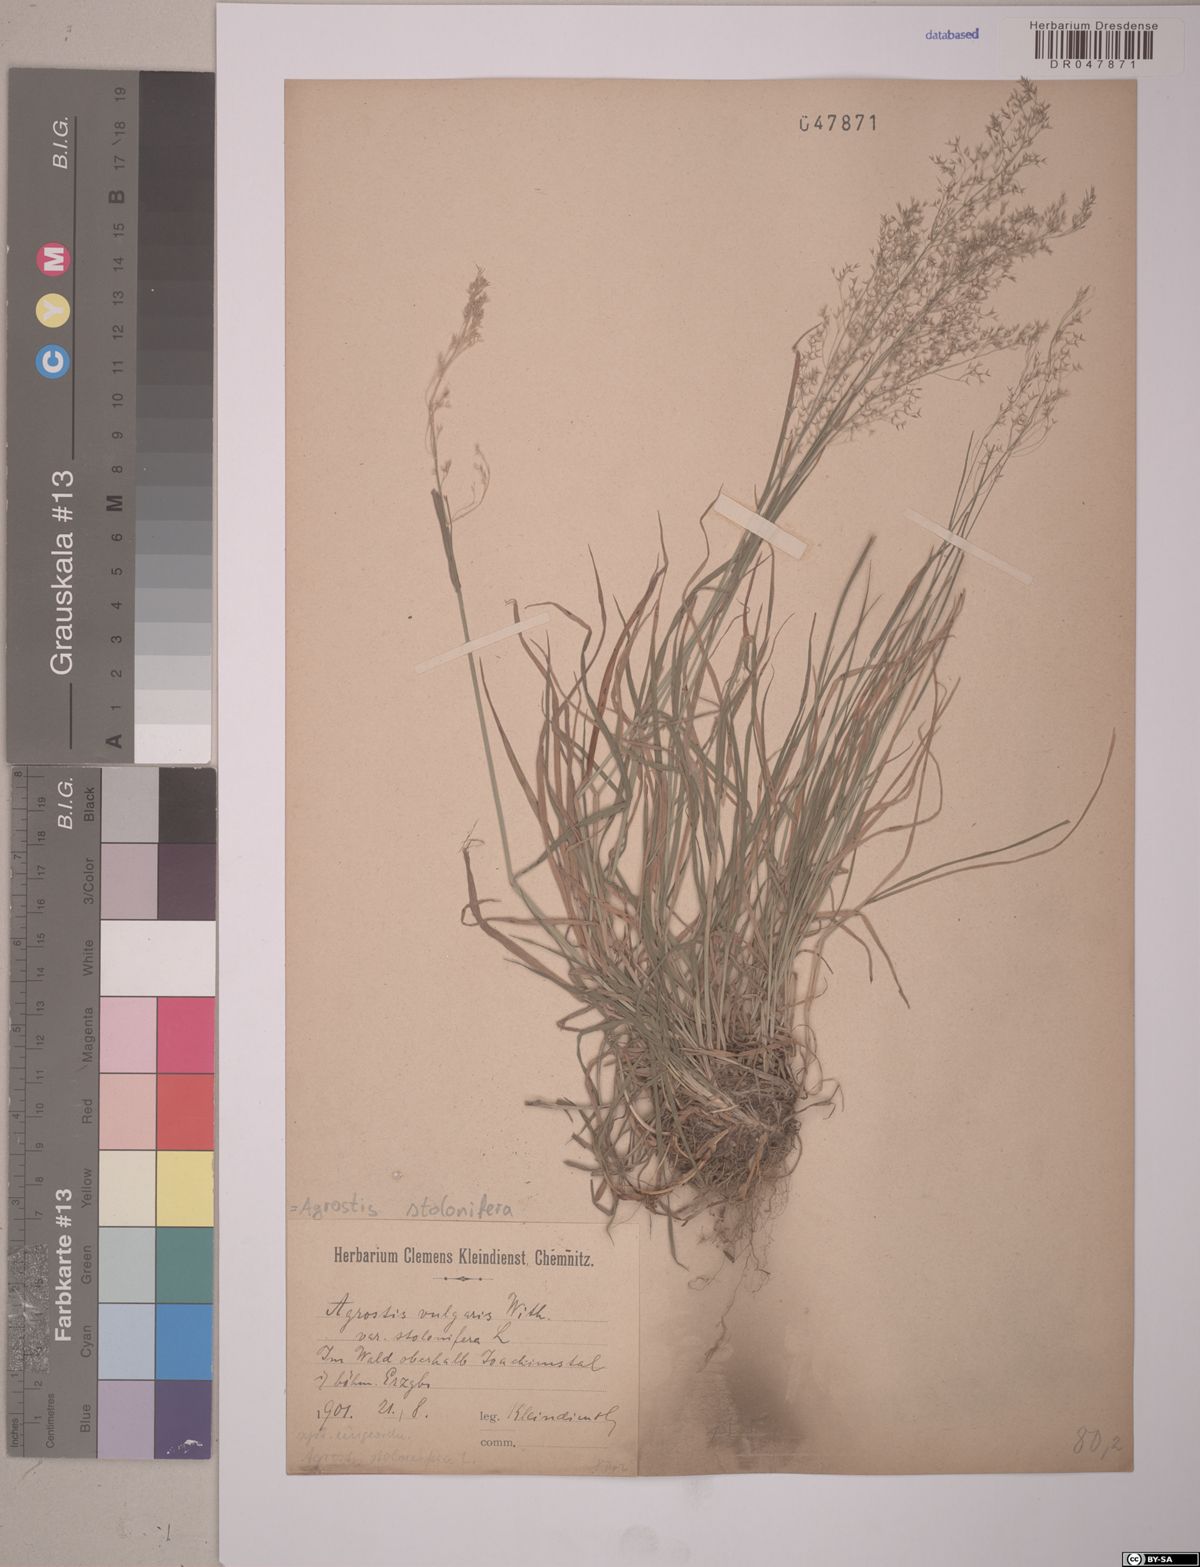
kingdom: Plantae
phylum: Tracheophyta
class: Liliopsida
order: Poales
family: Poaceae
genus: Agrostis
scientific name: Agrostis stolonifera
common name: Creeping bentgrass
